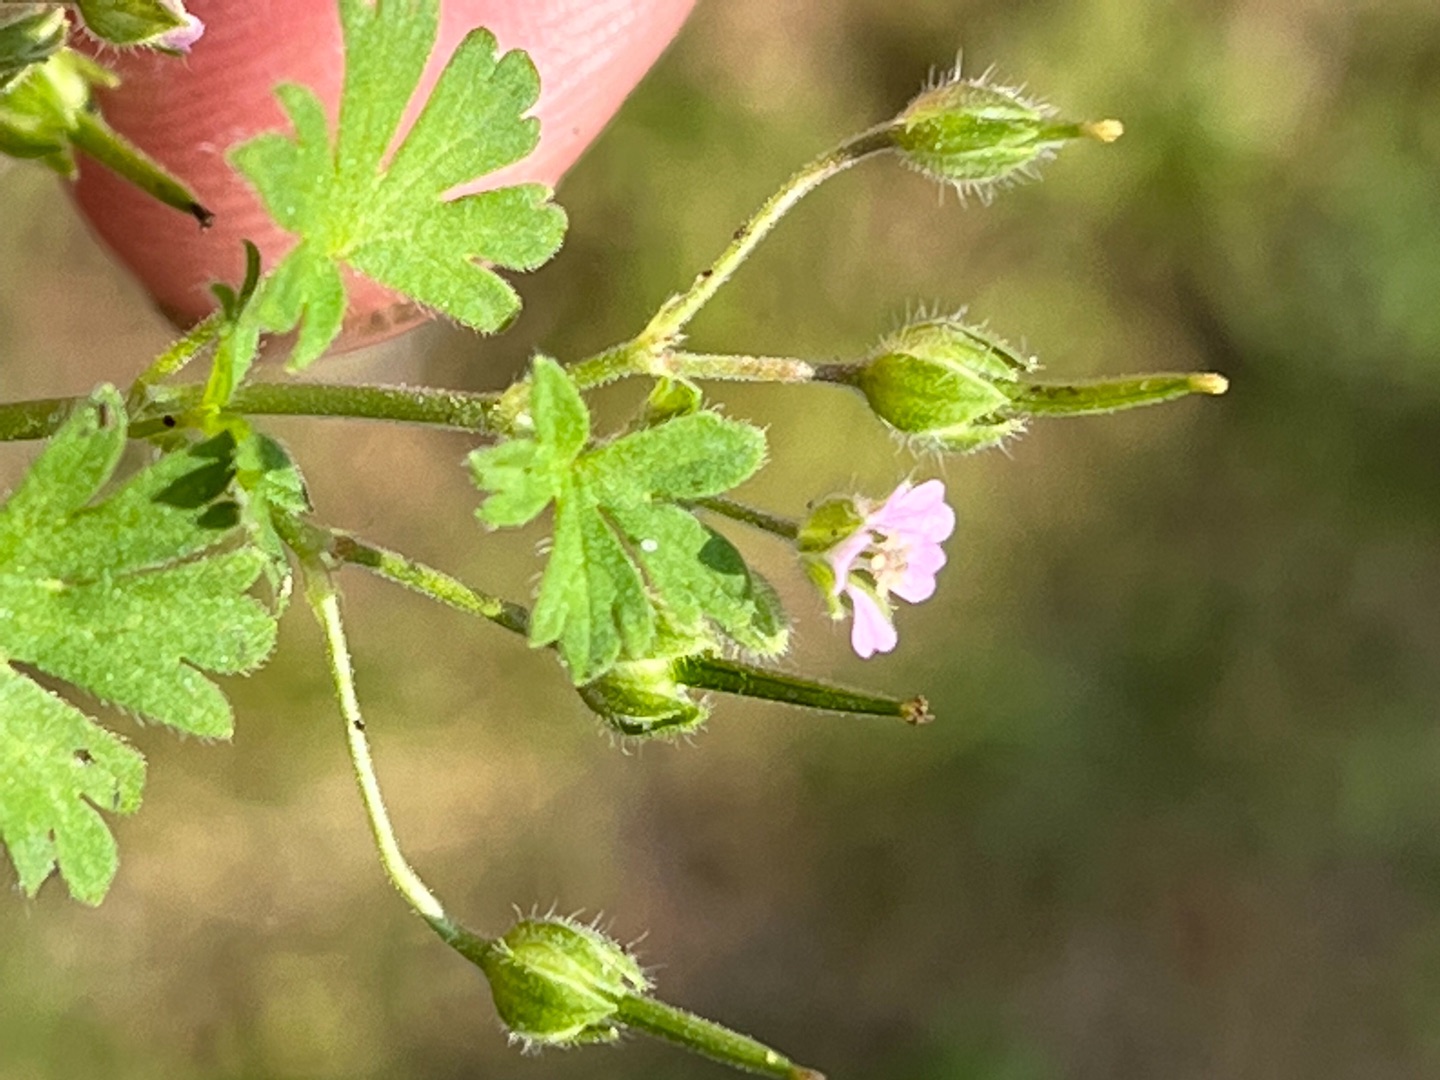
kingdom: Plantae
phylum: Tracheophyta
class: Magnoliopsida
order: Geraniales
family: Geraniaceae
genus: Geranium
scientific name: Geranium pusillum
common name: Liden storkenæb
